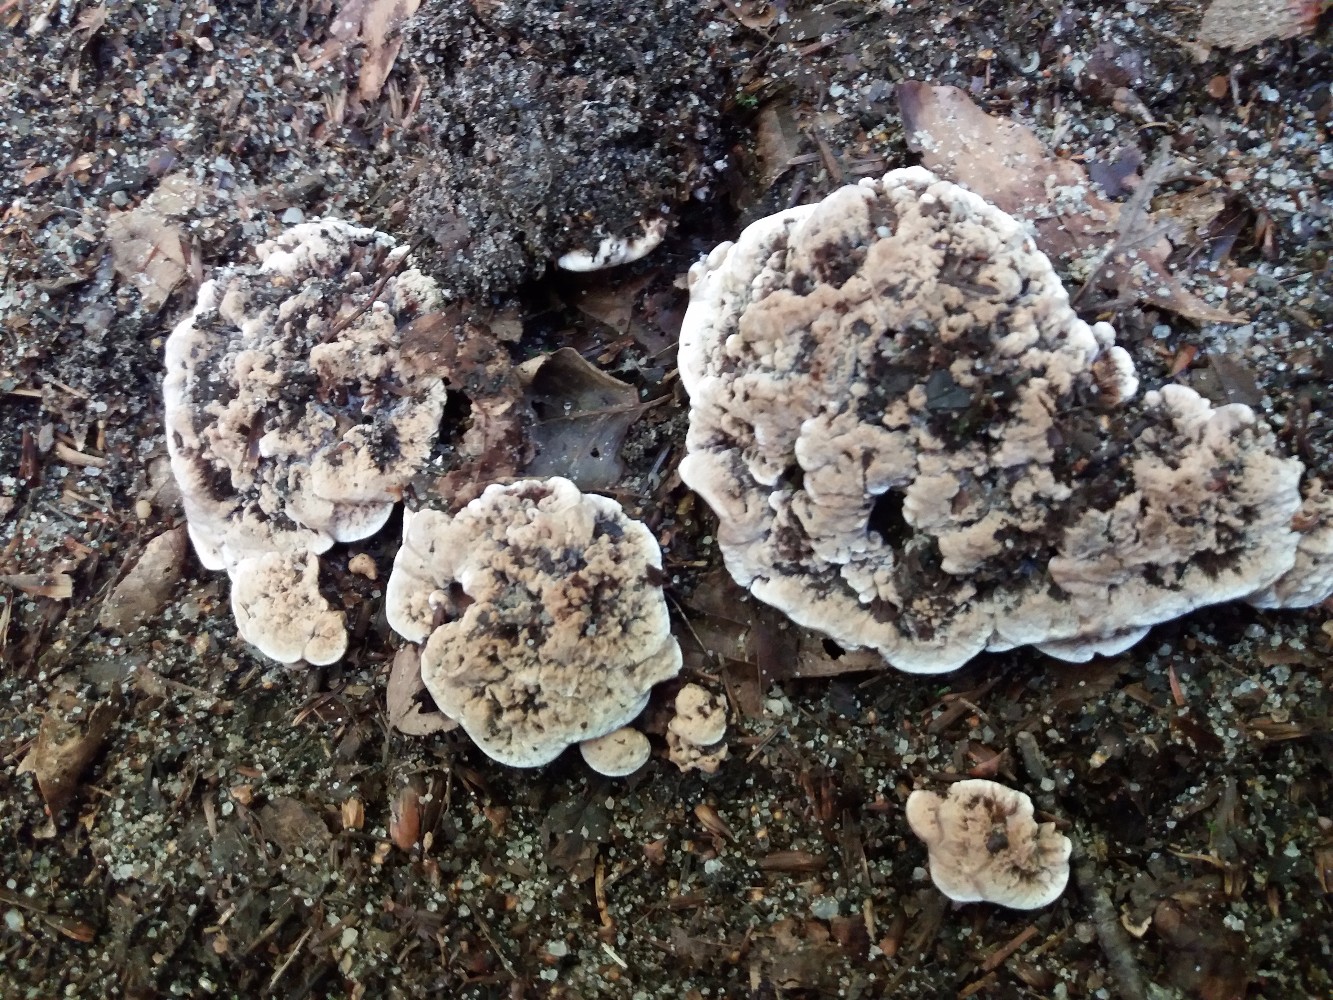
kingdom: Fungi
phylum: Basidiomycota
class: Agaricomycetes
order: Thelephorales
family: Bankeraceae
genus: Hydnellum
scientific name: Hydnellum cumulatum
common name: Rosette tooth
